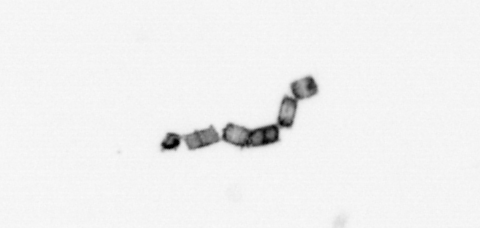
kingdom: Chromista
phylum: Ochrophyta
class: Bacillariophyceae
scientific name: Bacillariophyceae
